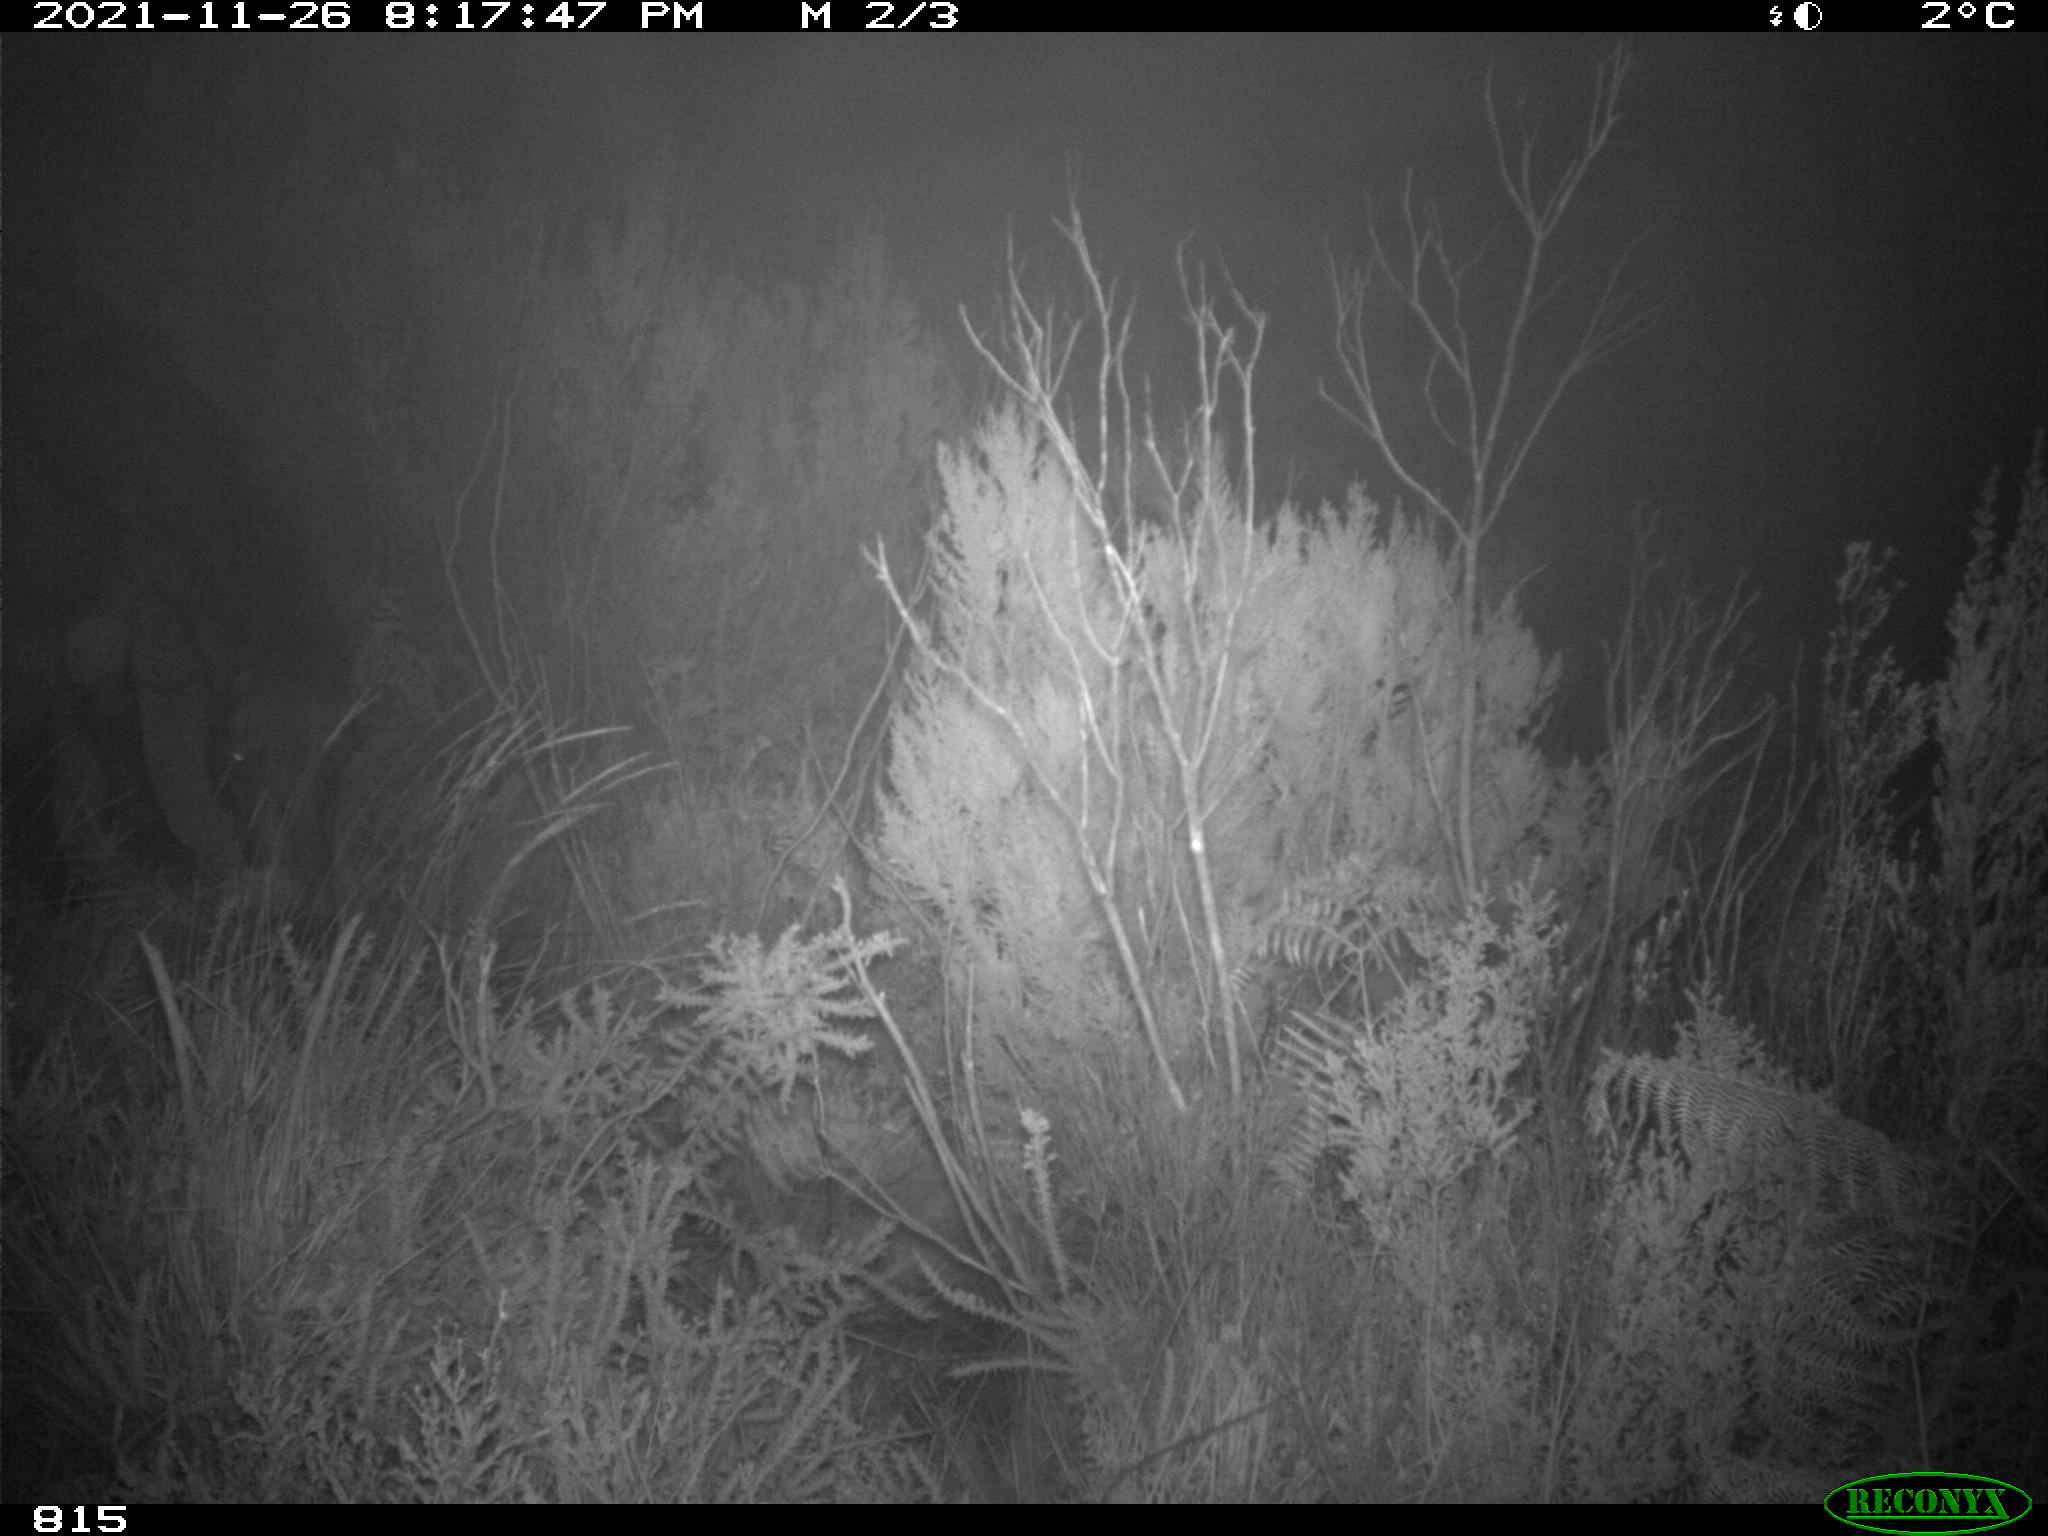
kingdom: Animalia
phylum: Chordata
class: Mammalia
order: Perissodactyla
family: Equidae
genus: Equus
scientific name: Equus caballus
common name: Horse
